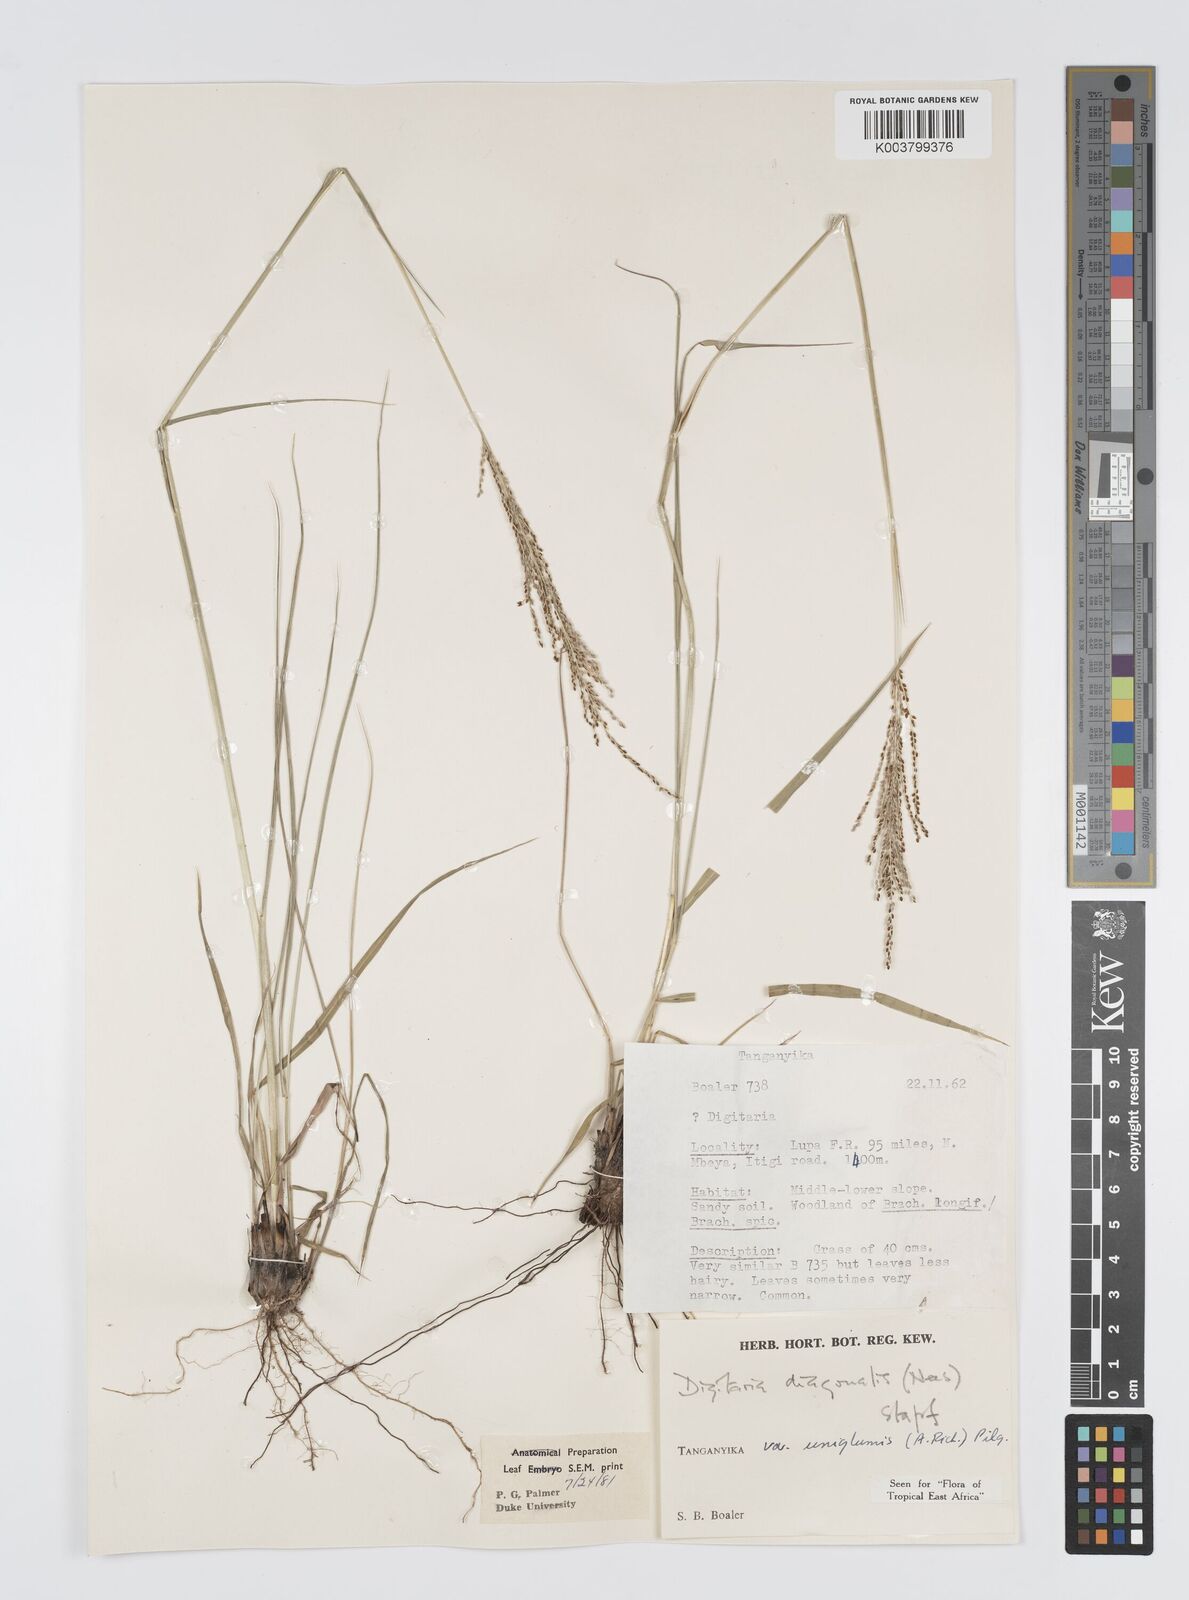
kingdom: Plantae
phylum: Tracheophyta
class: Liliopsida
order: Poales
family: Poaceae
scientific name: Poaceae
